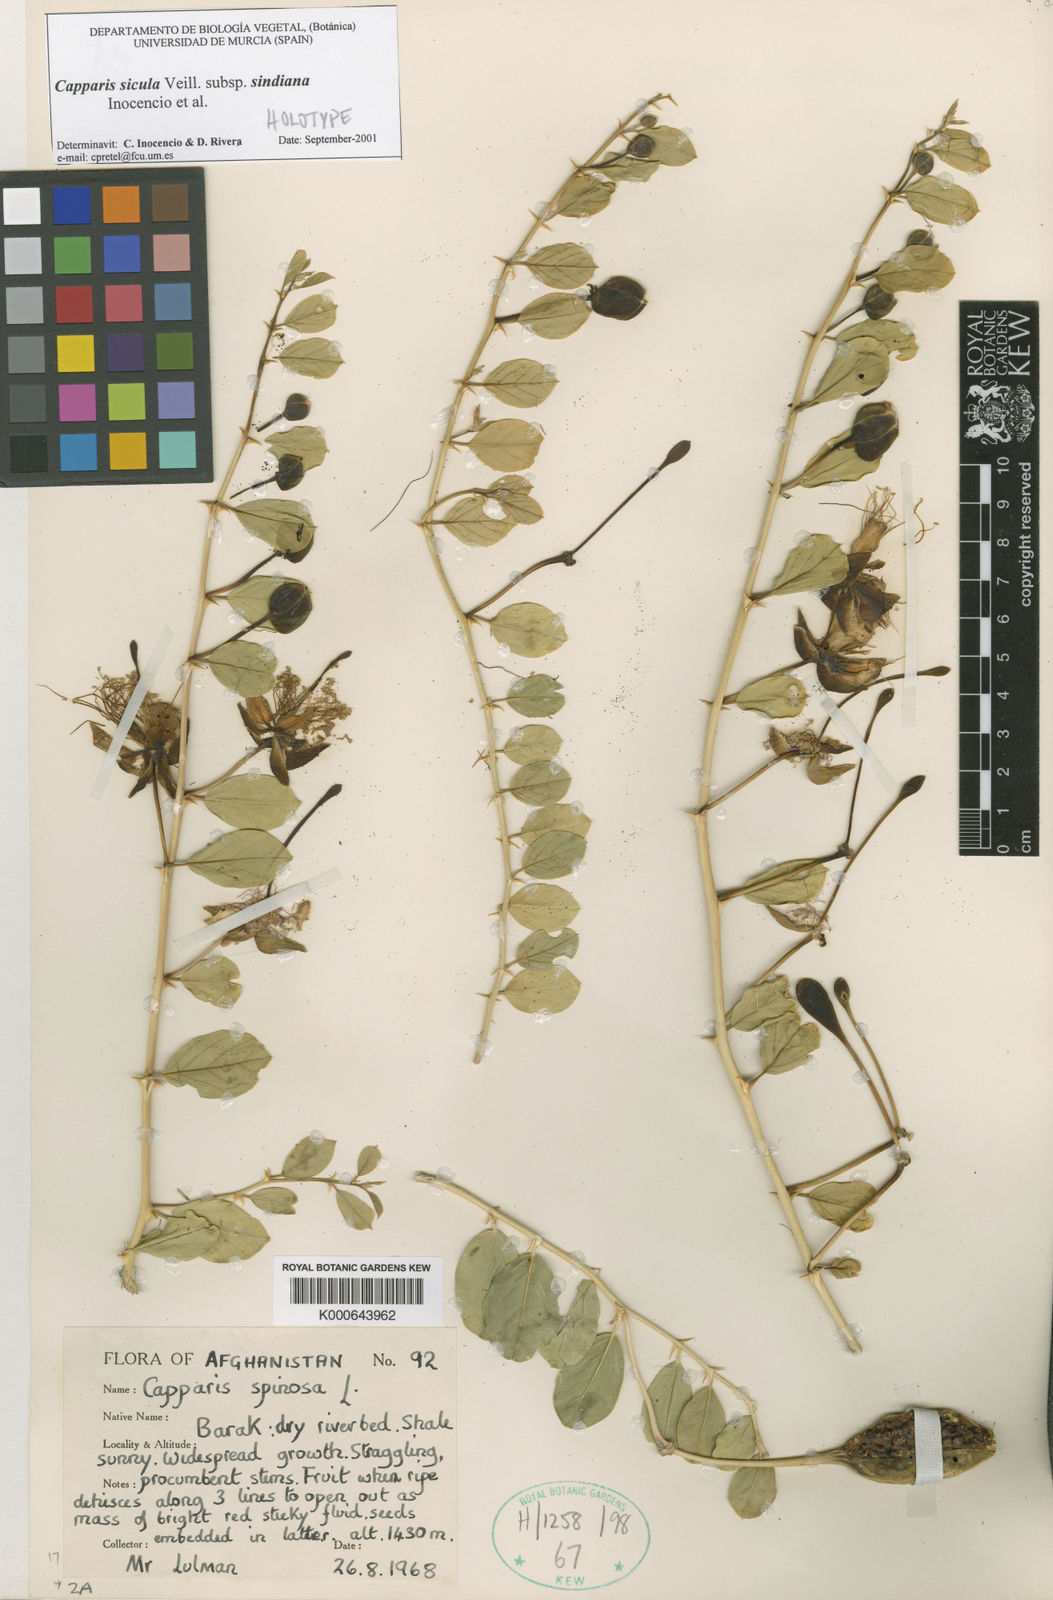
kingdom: Plantae
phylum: Tracheophyta
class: Magnoliopsida
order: Brassicales
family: Capparaceae
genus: Capparis
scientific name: Capparis spinosa
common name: Caper
